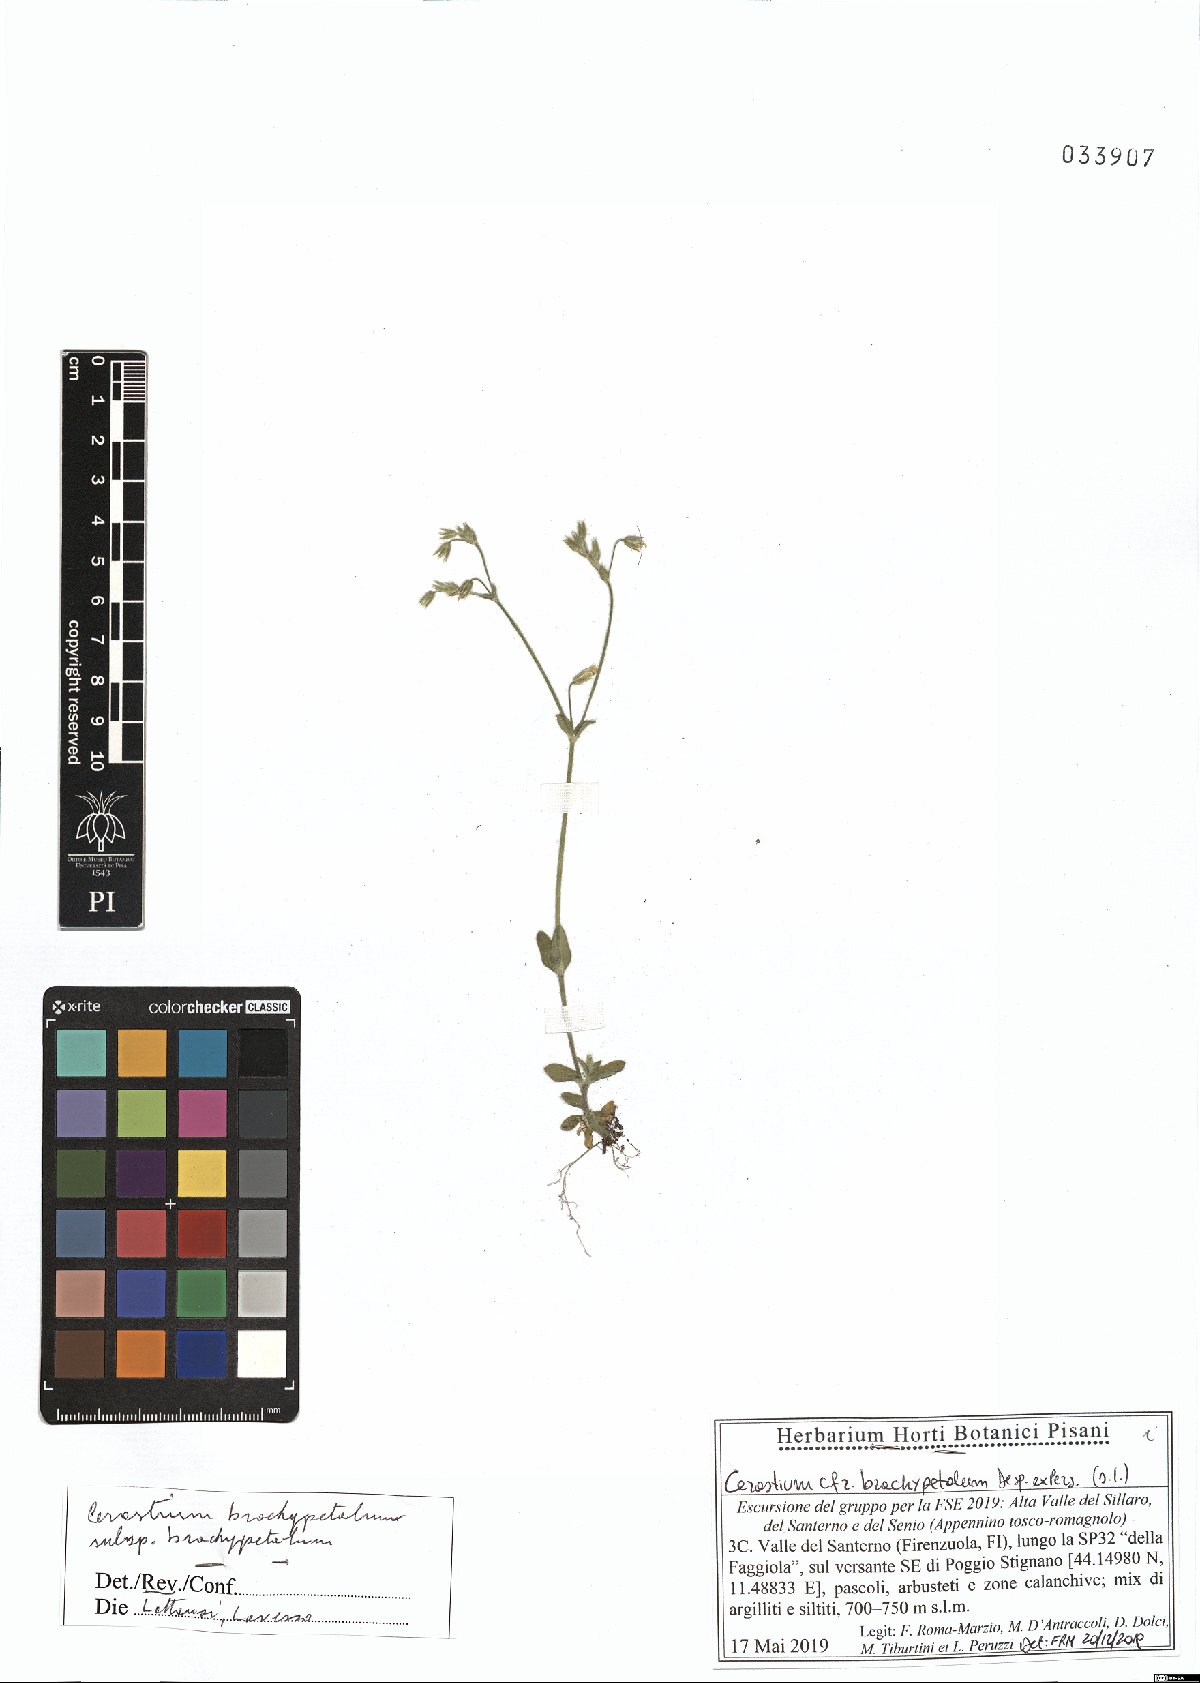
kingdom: Plantae
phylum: Tracheophyta
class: Magnoliopsida
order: Caryophyllales
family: Caryophyllaceae
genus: Cerastium
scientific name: Cerastium brachypetalum
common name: Grey mouse-ear
